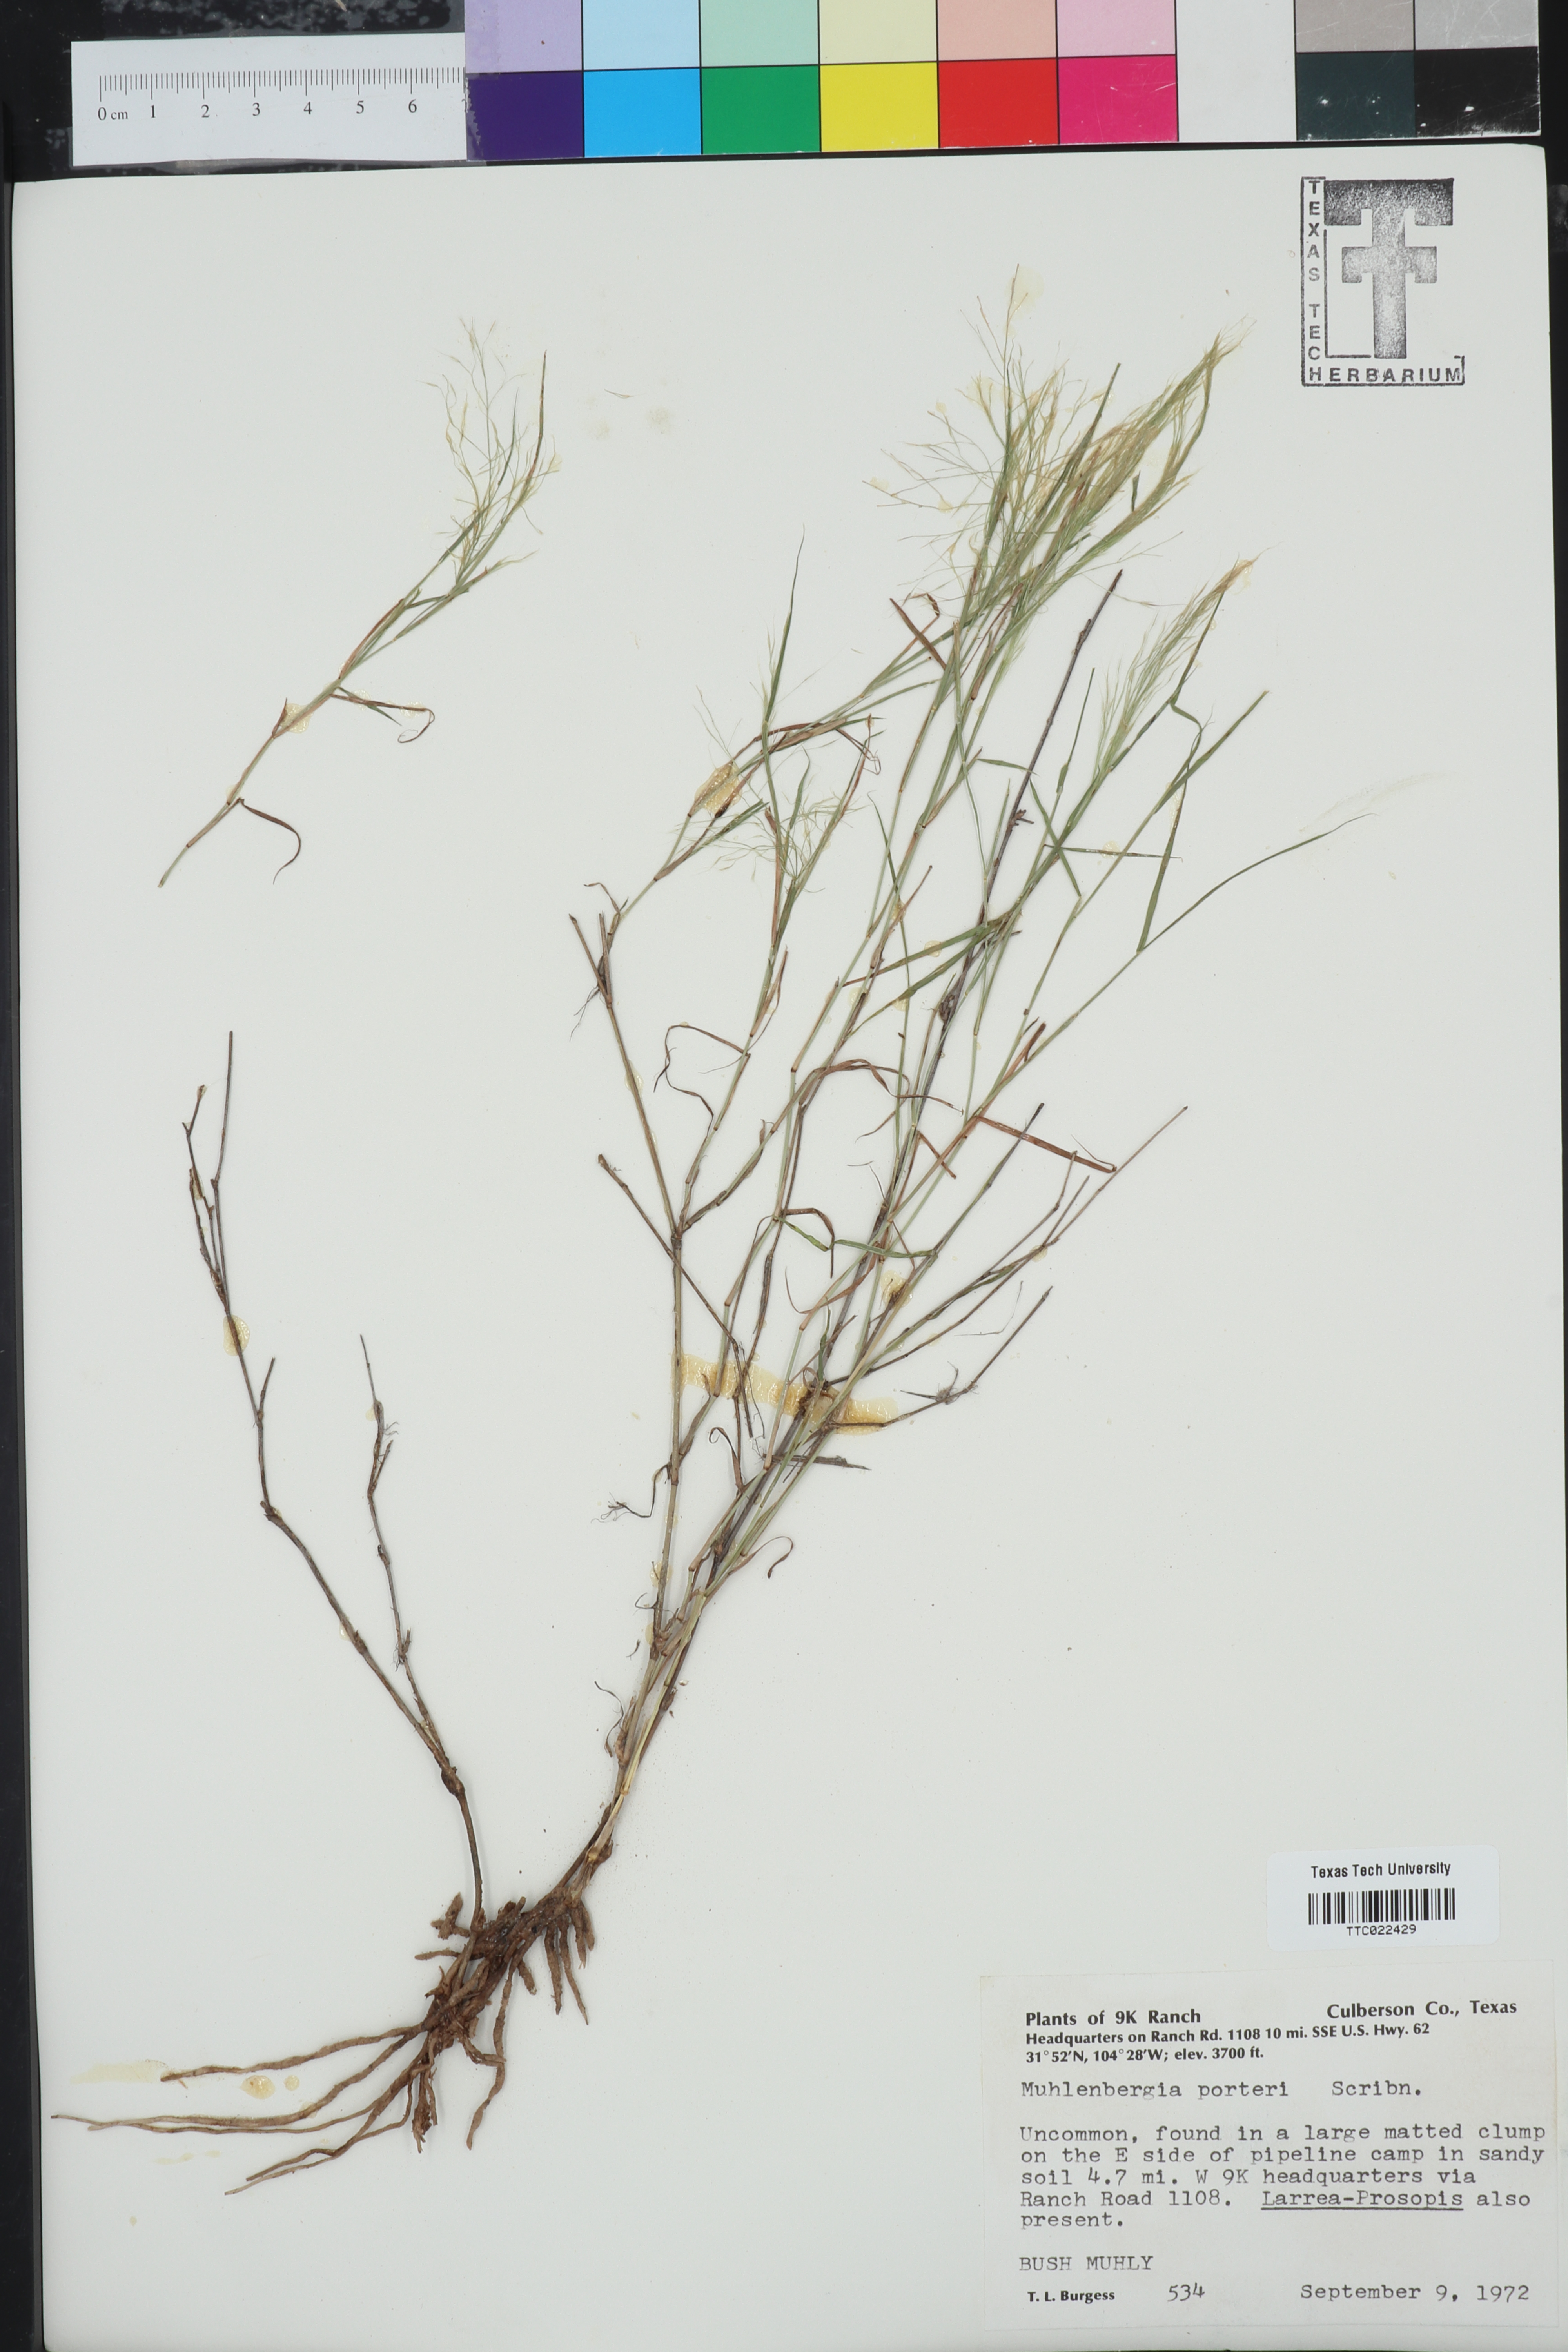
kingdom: Plantae
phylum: Tracheophyta
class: Liliopsida
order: Poales
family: Poaceae
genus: Muhlenbergia
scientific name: Muhlenbergia porteri
